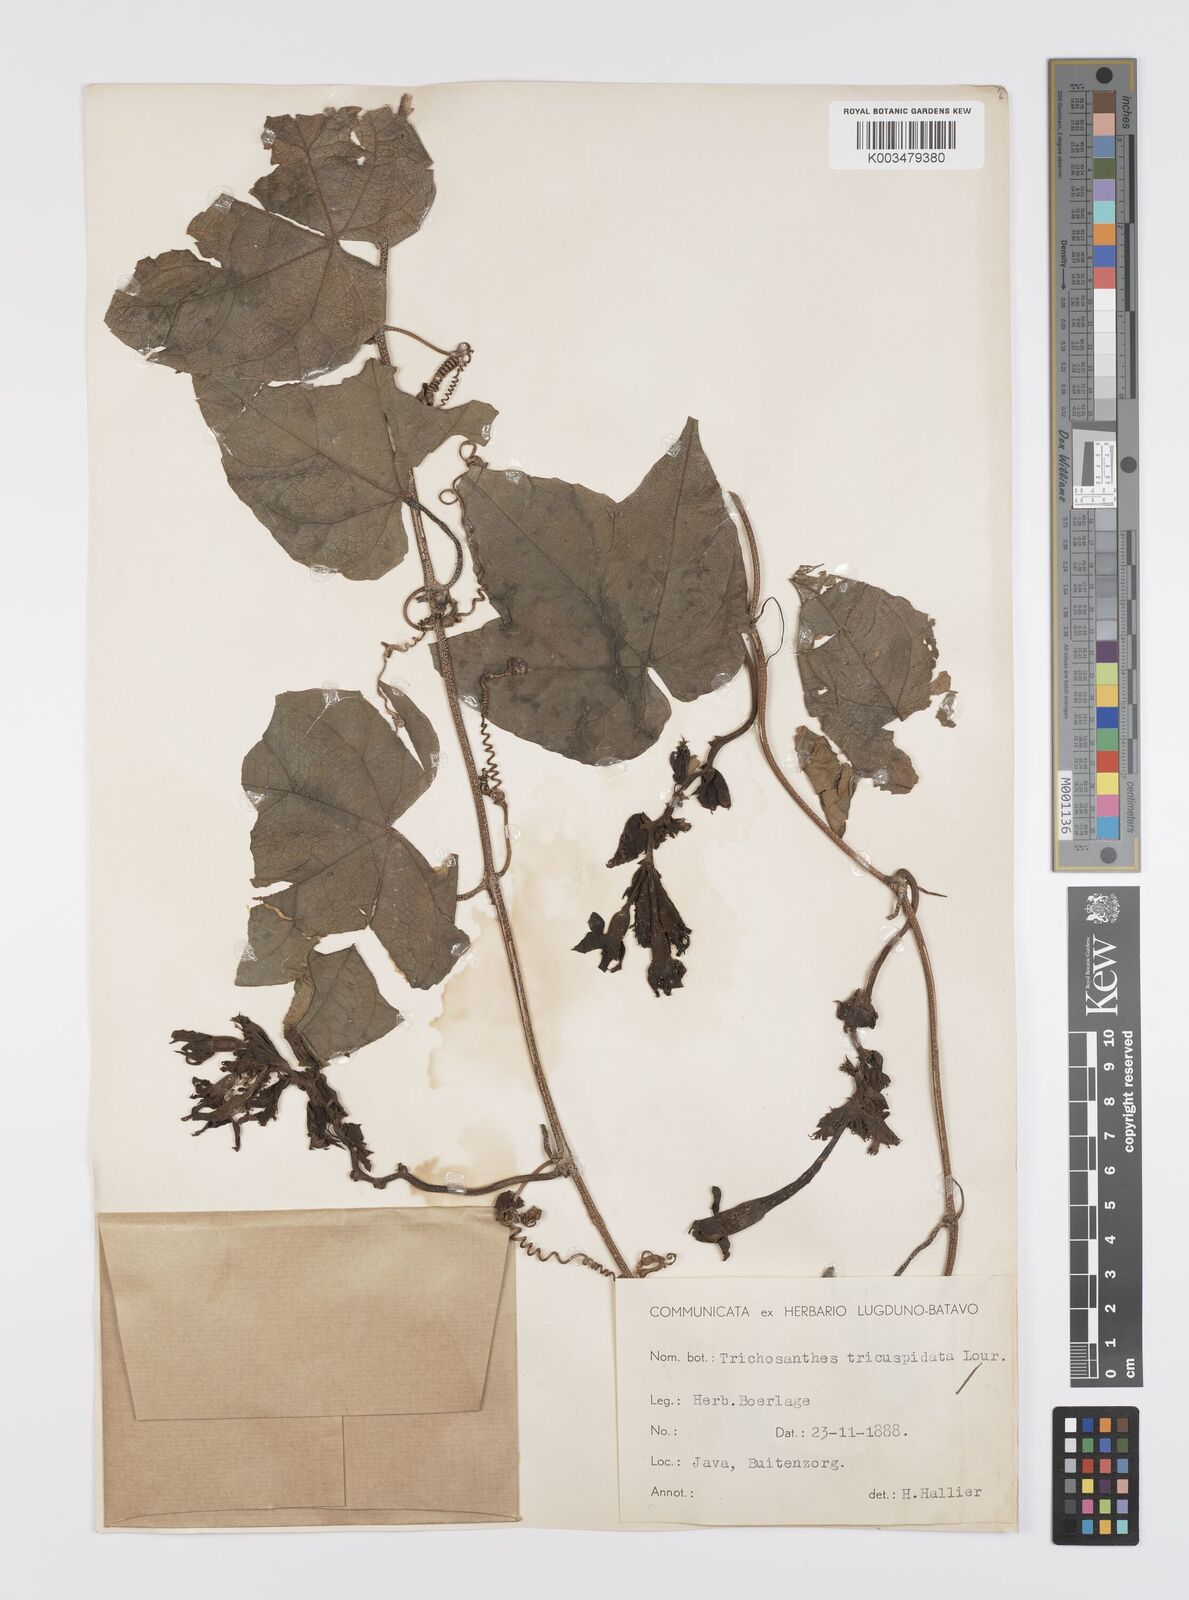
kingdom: Plantae
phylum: Tracheophyta
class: Magnoliopsida
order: Cucurbitales
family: Cucurbitaceae
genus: Trichosanthes
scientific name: Trichosanthes tricuspidata
